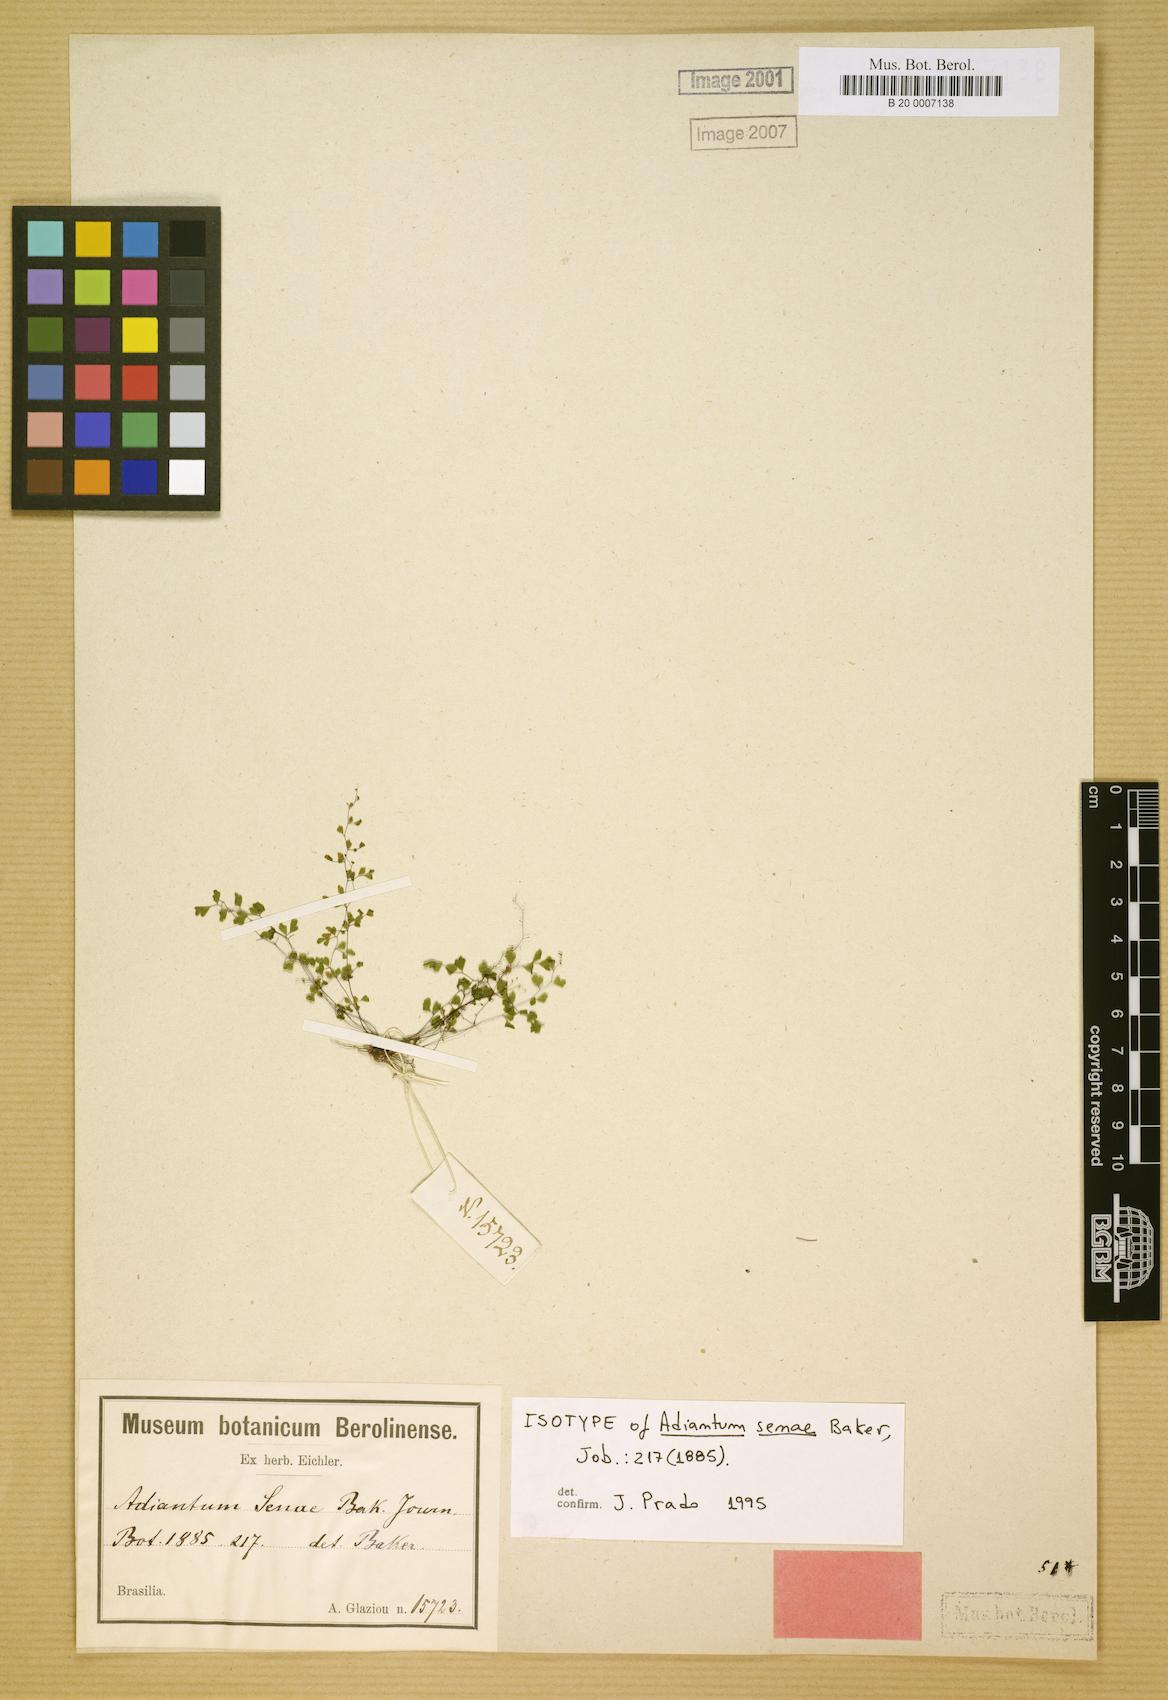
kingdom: Plantae
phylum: Tracheophyta
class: Polypodiopsida
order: Polypodiales
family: Pteridaceae
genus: Adiantopsis
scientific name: Adiantopsis senae
